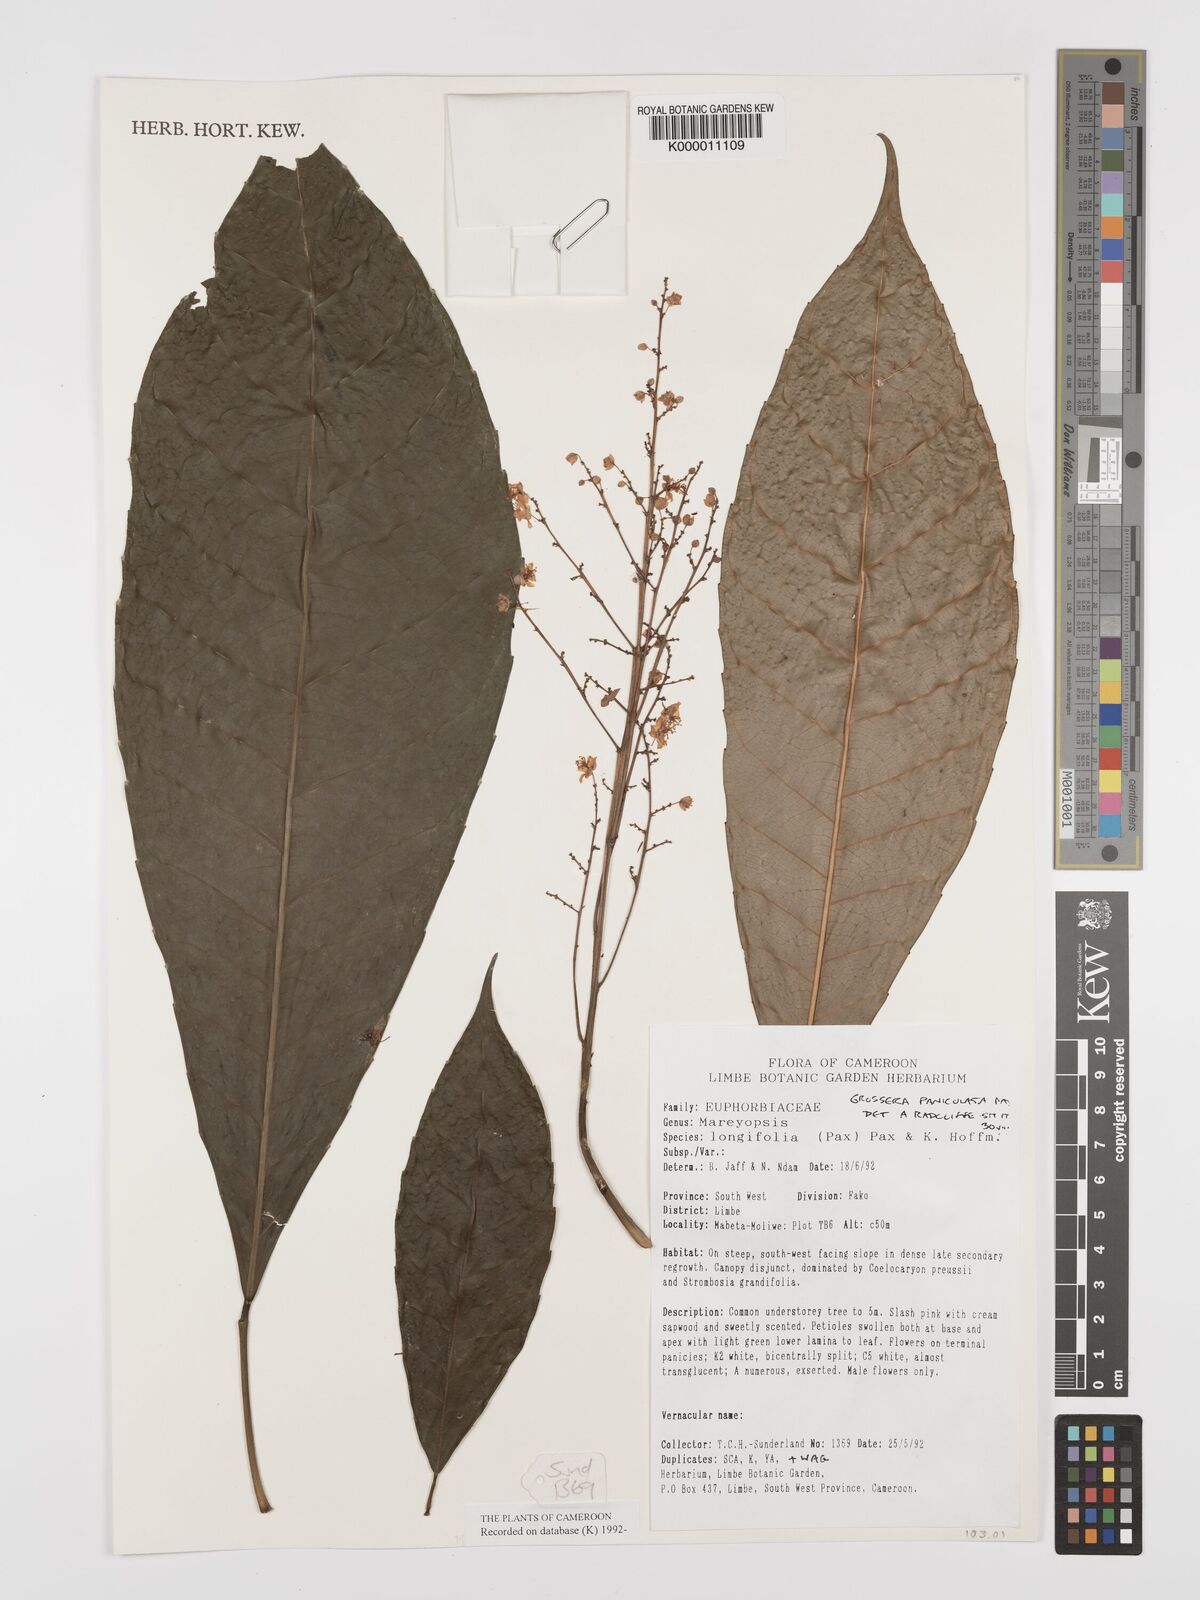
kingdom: Plantae
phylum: Tracheophyta
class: Magnoliopsida
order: Malpighiales
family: Euphorbiaceae
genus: Grossera
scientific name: Grossera paniculata
